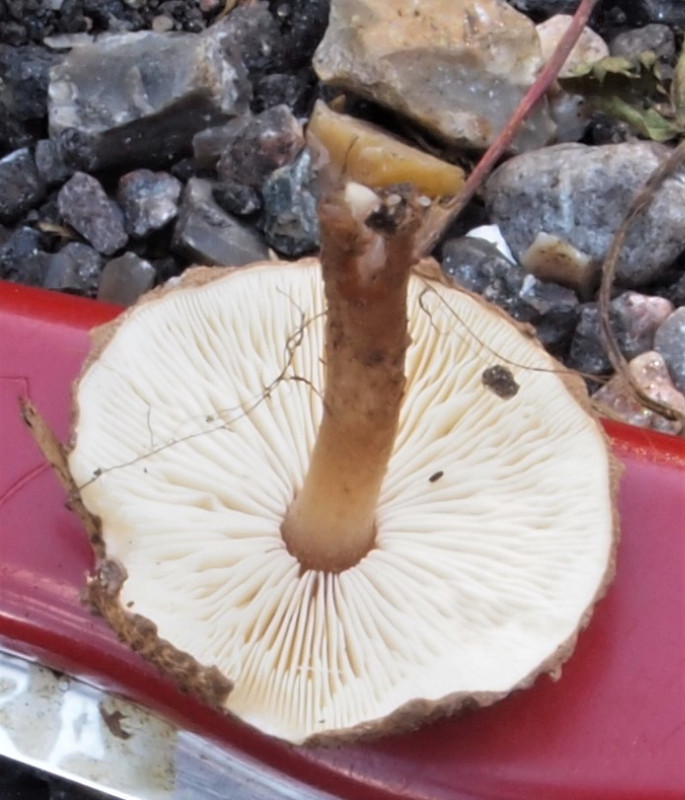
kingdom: Fungi
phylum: Basidiomycota
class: Agaricomycetes
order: Agaricales
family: Agaricaceae
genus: Echinoderma
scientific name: Echinoderma echinaceum
